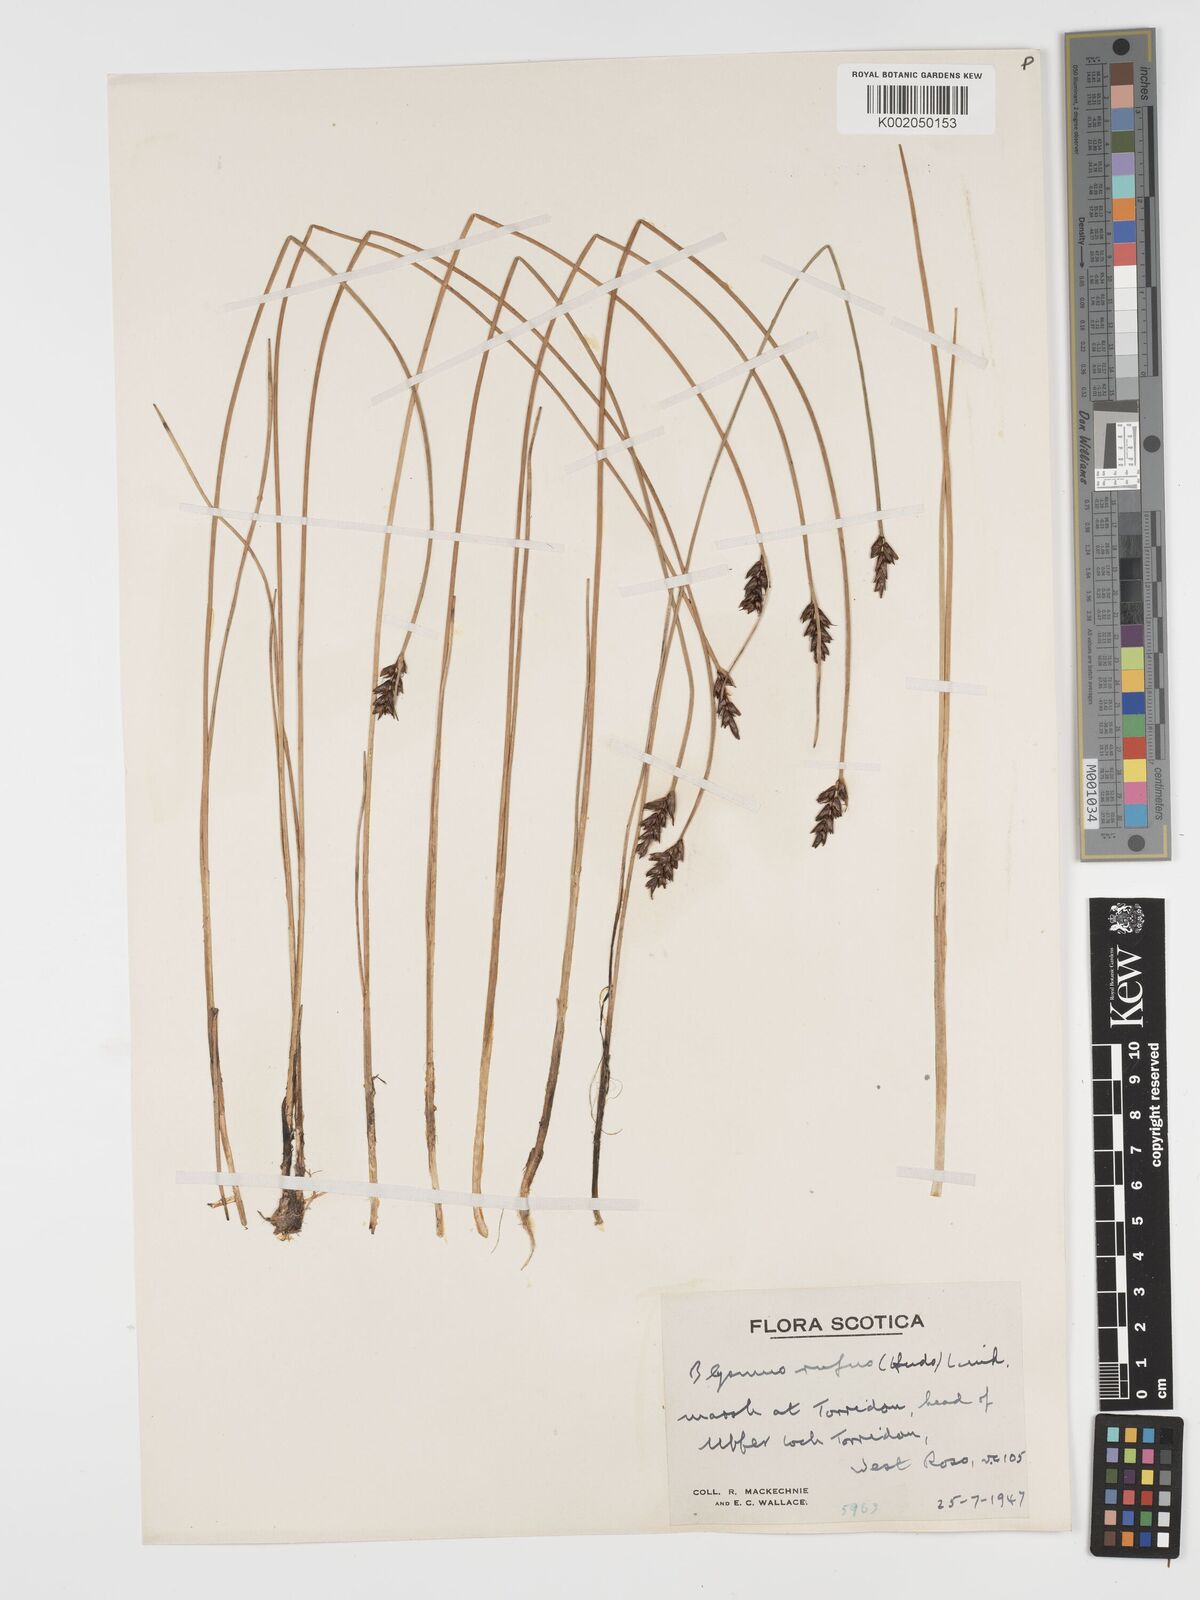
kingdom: Plantae
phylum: Tracheophyta
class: Liliopsida
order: Poales
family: Cyperaceae
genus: Blysmus
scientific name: Blysmus rufus
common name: Saltmarsh flat-sedge
